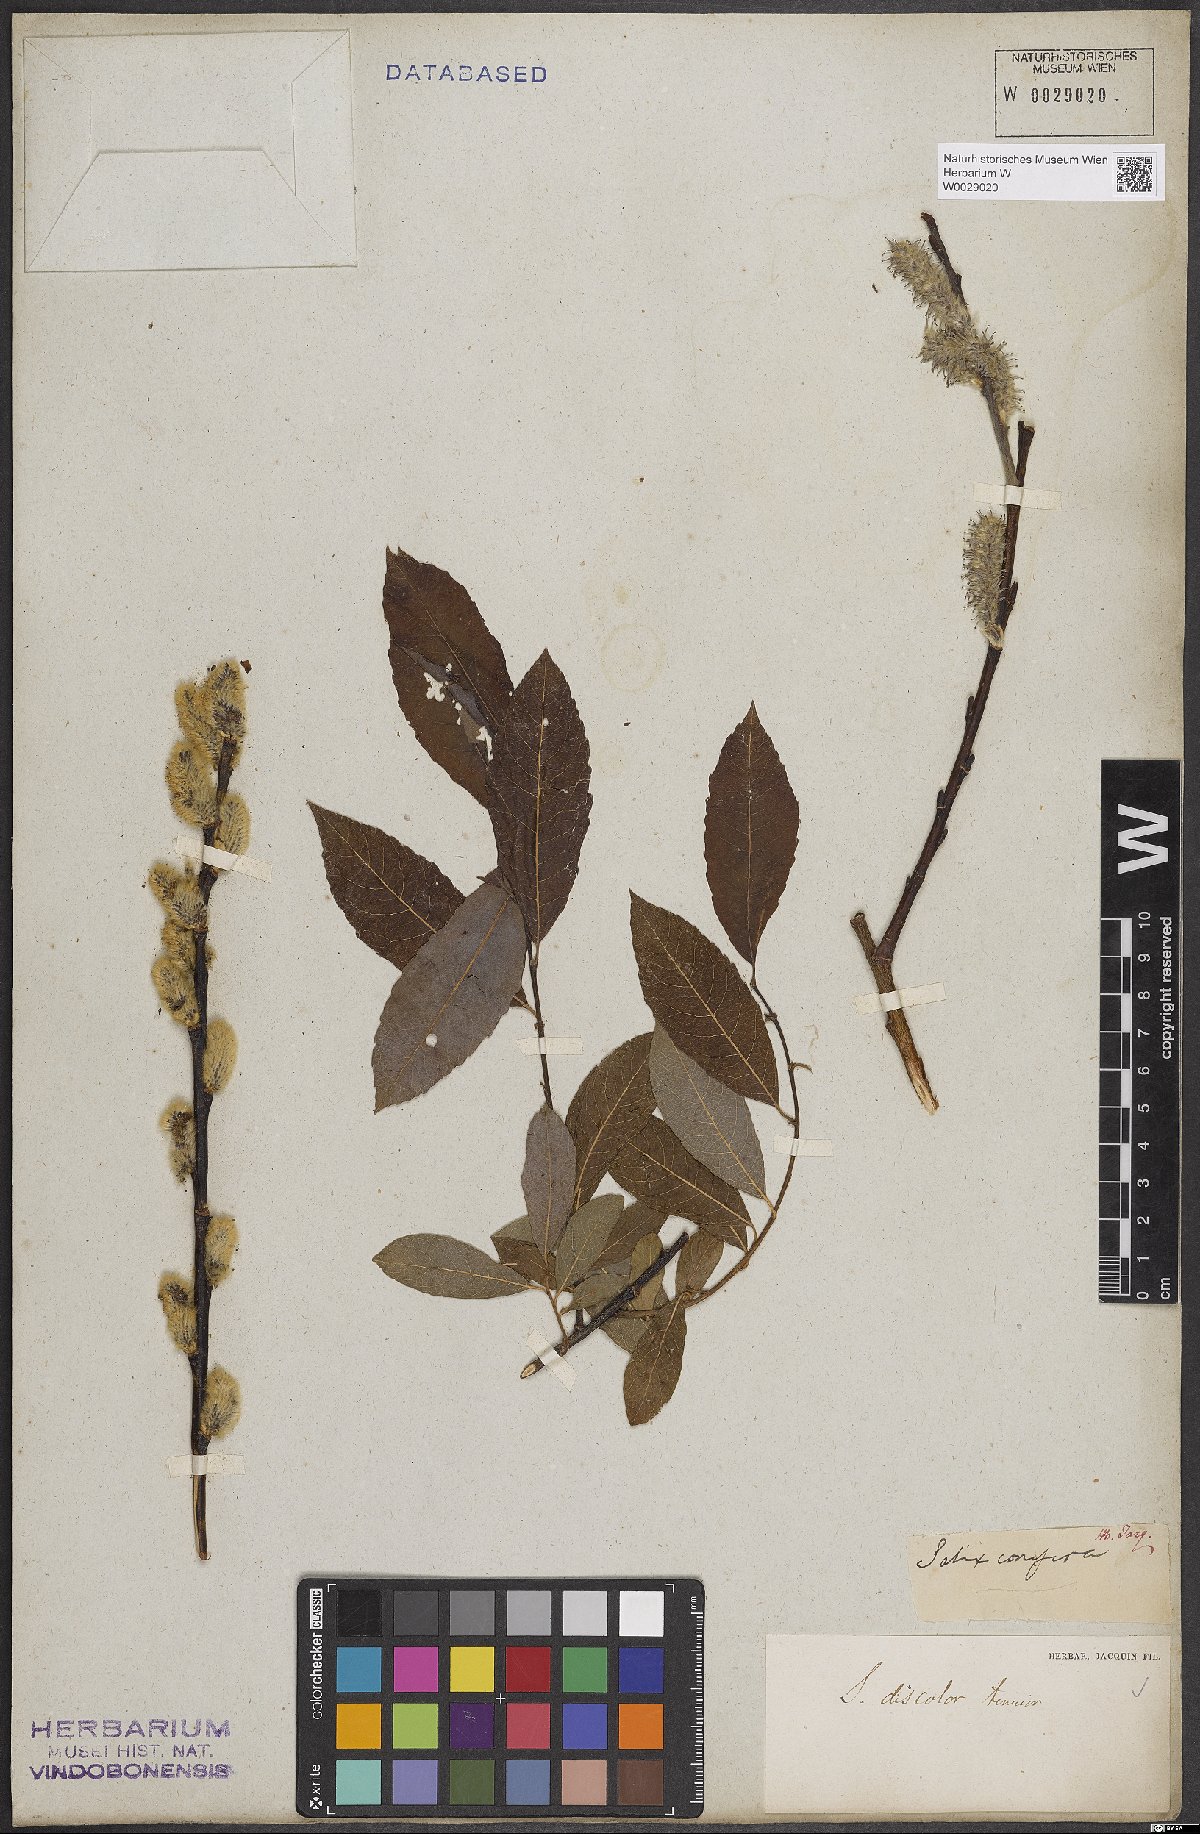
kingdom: Plantae
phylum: Tracheophyta
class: Magnoliopsida
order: Malpighiales
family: Salicaceae
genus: Salix
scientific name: Salix discolor
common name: Glaucous willow
